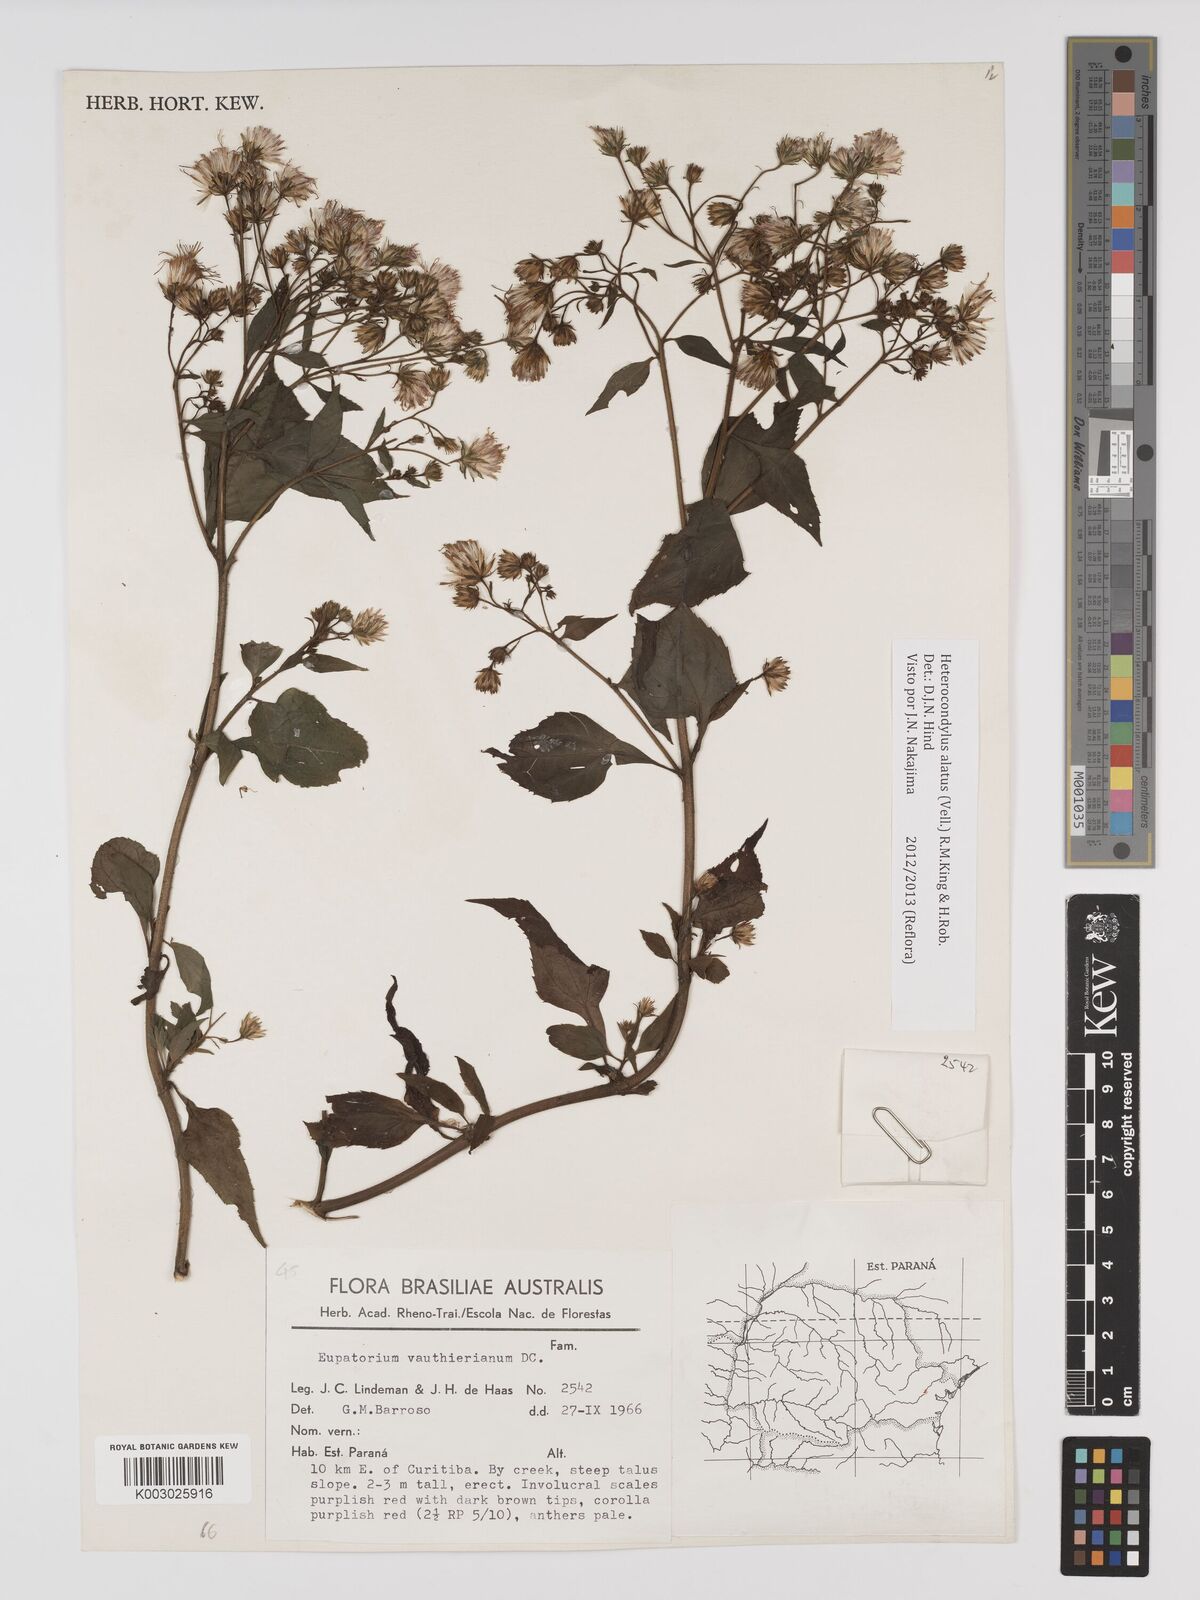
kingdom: Plantae
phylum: Tracheophyta
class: Magnoliopsida
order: Asterales
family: Asteraceae
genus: Heterocondylus
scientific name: Heterocondylus alatus
